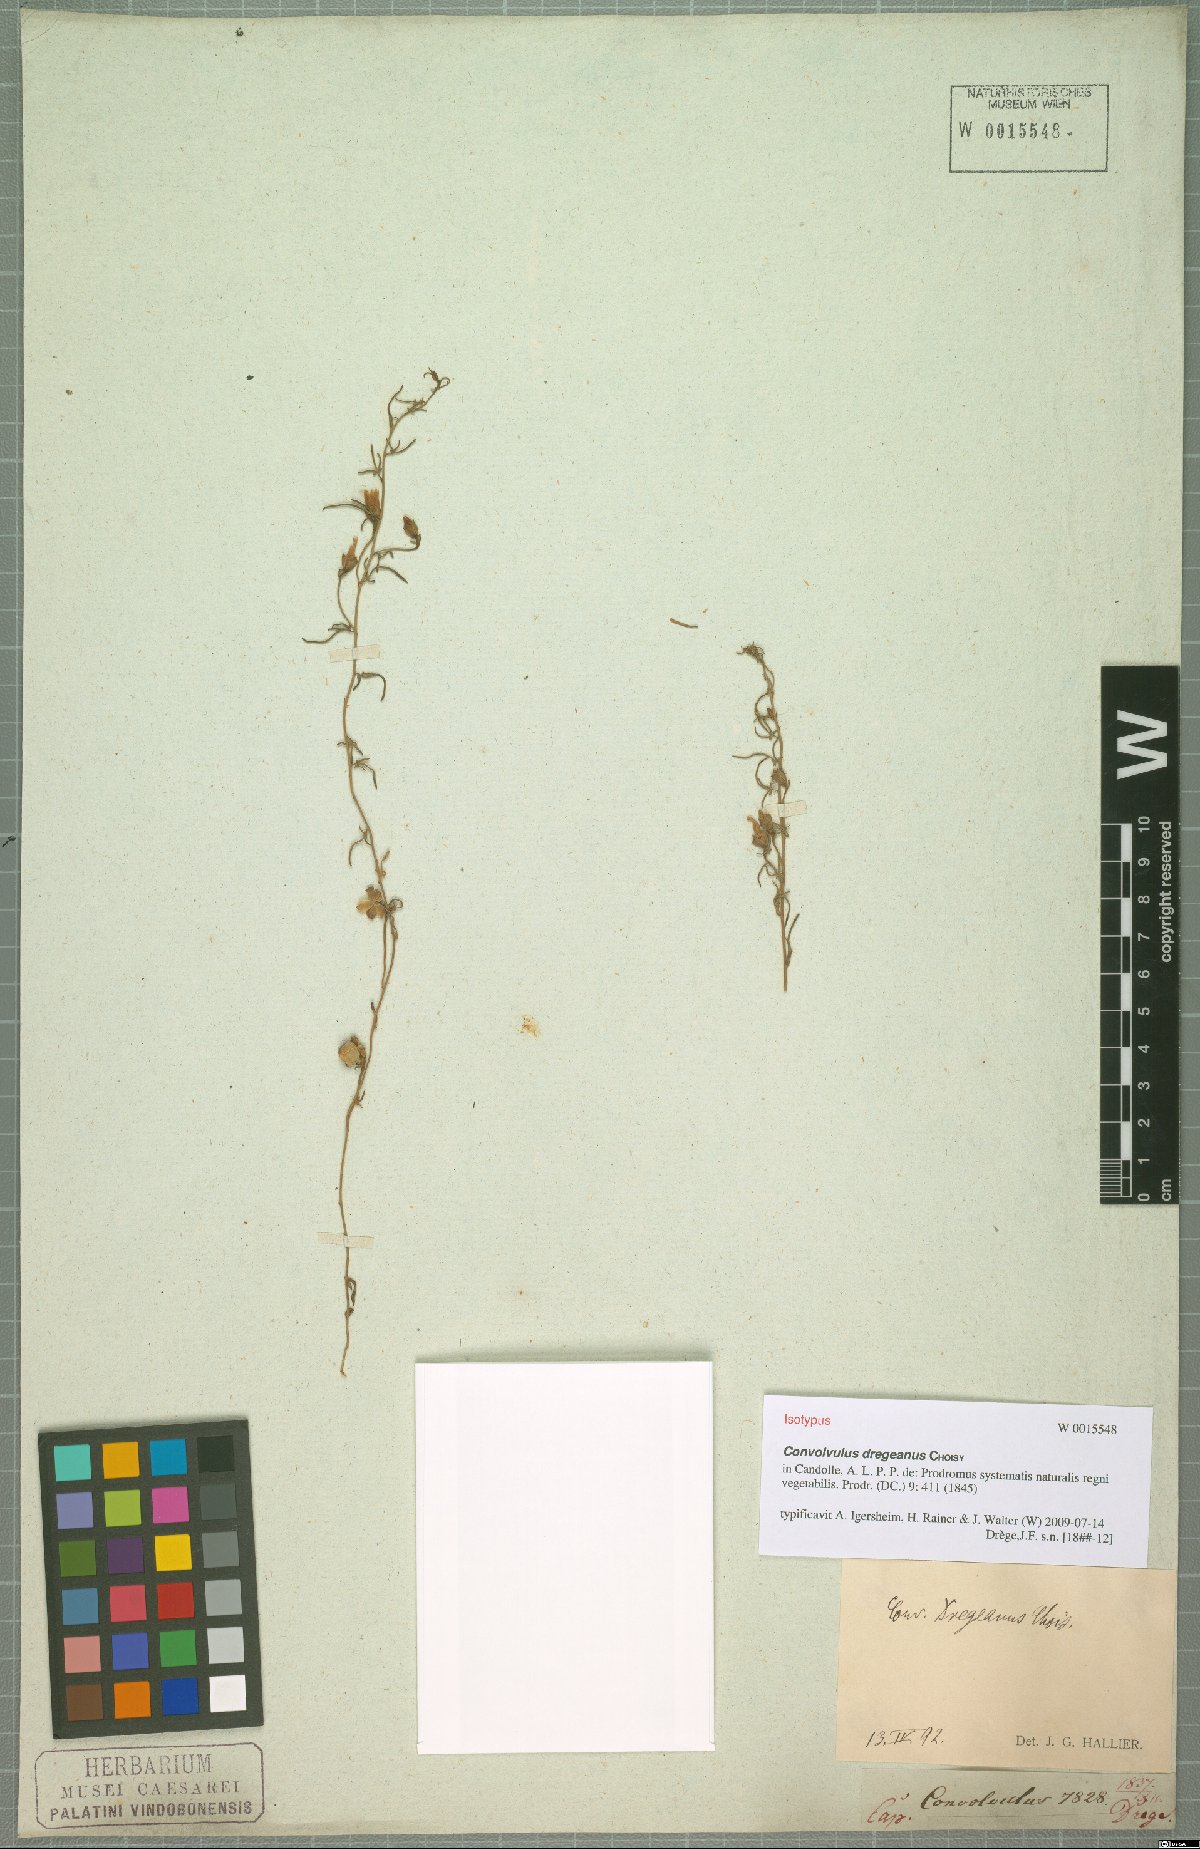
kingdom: Plantae
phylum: Tracheophyta
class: Magnoliopsida
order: Solanales
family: Convolvulaceae
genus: Convolvulus
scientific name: Convolvulus dregeanus
